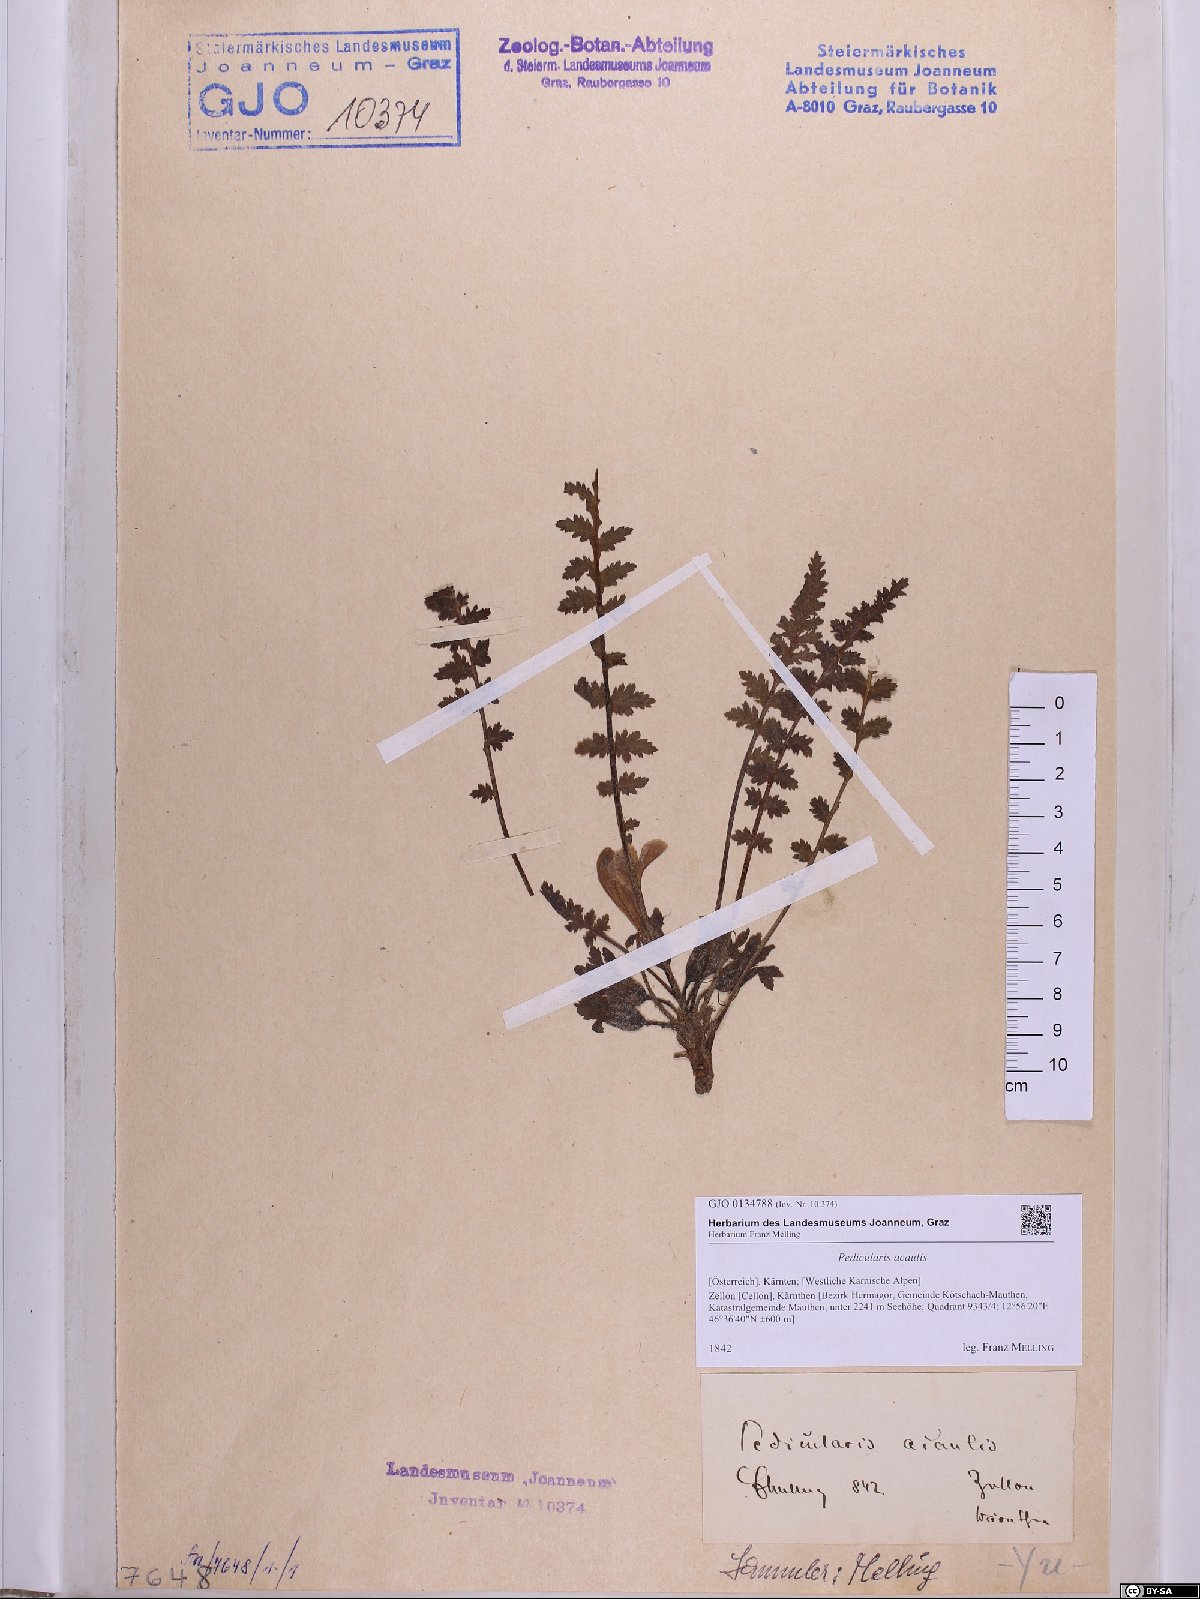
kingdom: Plantae
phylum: Tracheophyta
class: Magnoliopsida
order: Lamiales
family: Orobanchaceae
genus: Pedicularis
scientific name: Pedicularis acaulis
